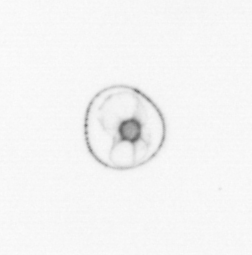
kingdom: Chromista
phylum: Myzozoa
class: Dinophyceae
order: Noctilucales
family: Noctilucaceae
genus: Noctiluca
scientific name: Noctiluca scintillans
